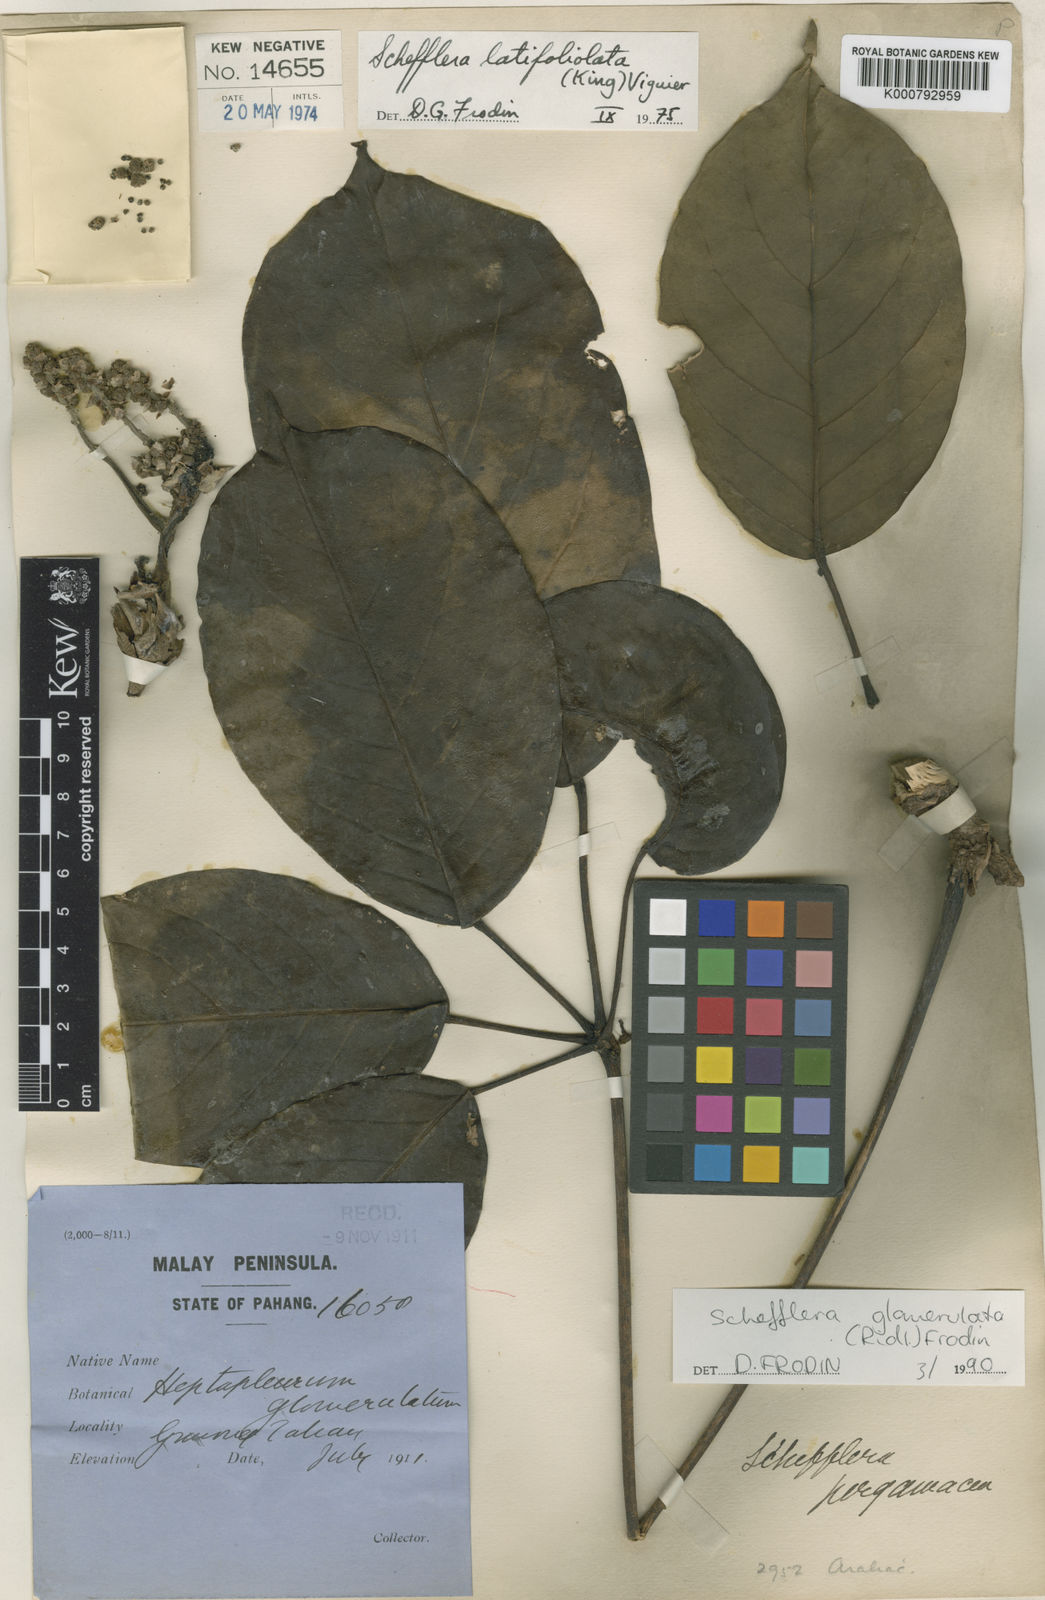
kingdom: Plantae
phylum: Tracheophyta
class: Magnoliopsida
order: Apiales
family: Araliaceae
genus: Heptapleurum
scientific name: Heptapleurum latifoliolatum
